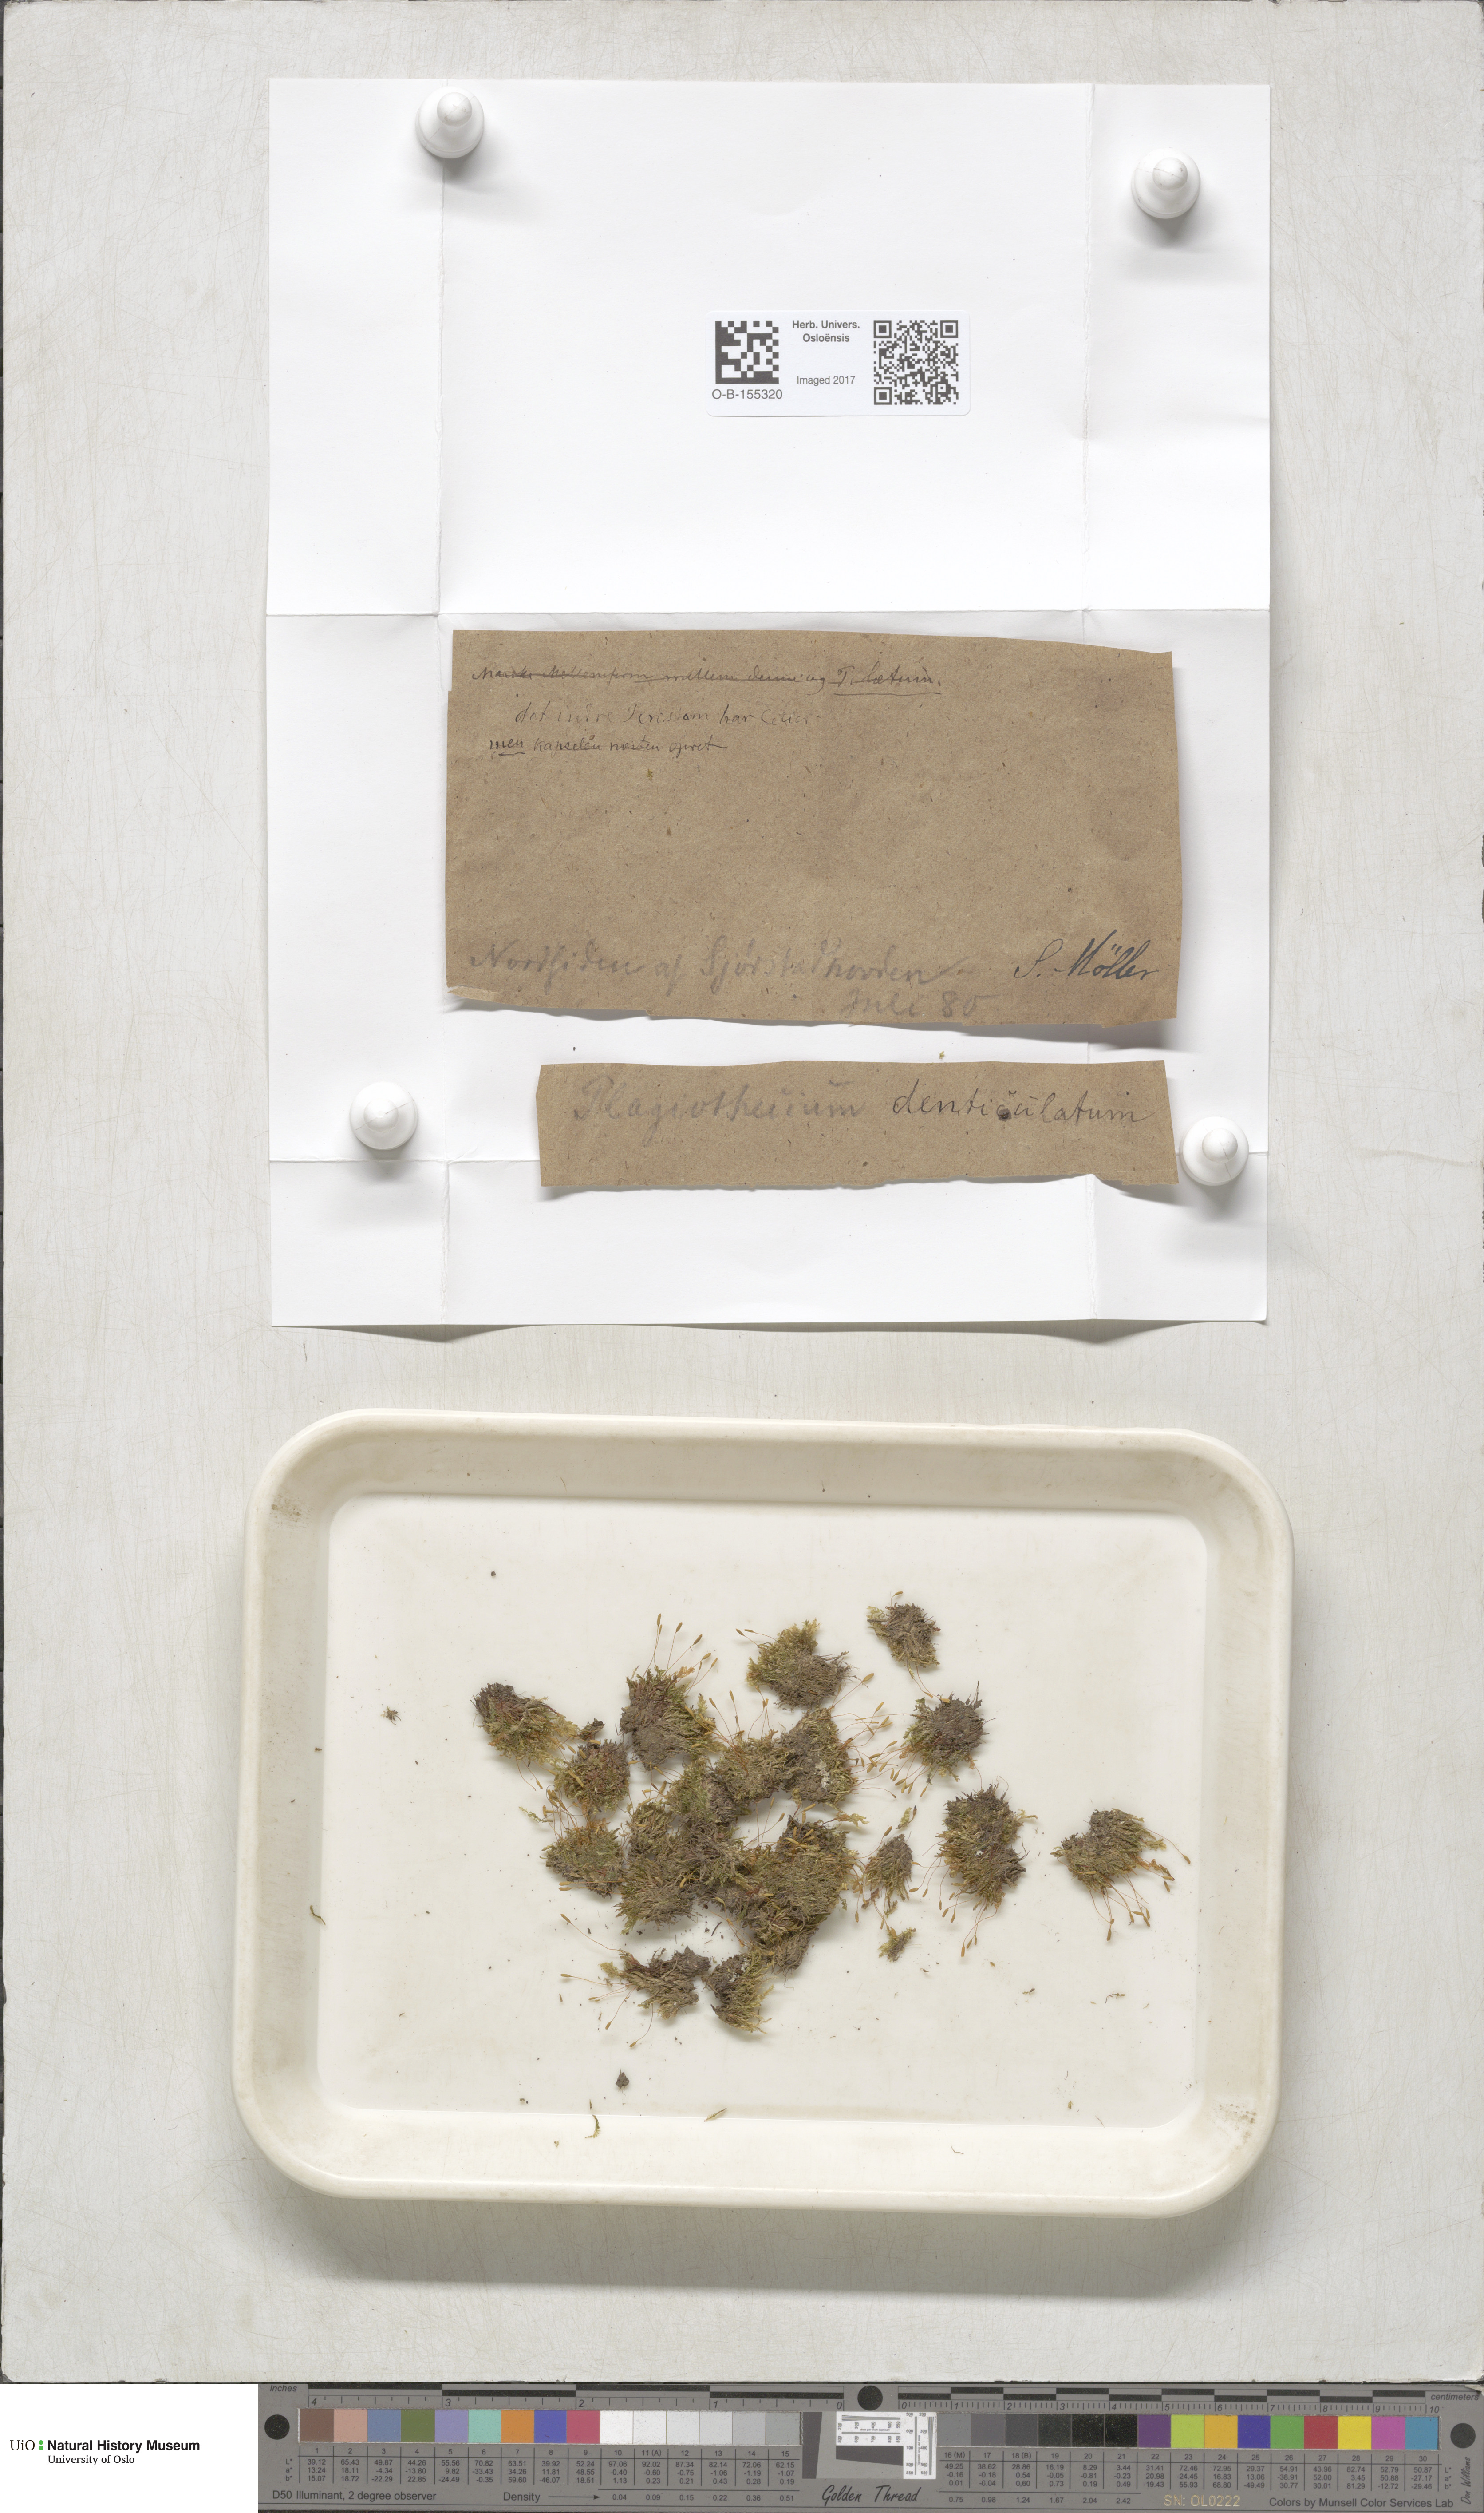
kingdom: Plantae
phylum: Bryophyta
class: Bryopsida
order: Hypnales
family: Plagiotheciaceae
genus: Plagiothecium
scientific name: Plagiothecium denticulatum
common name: Dented silk moss
